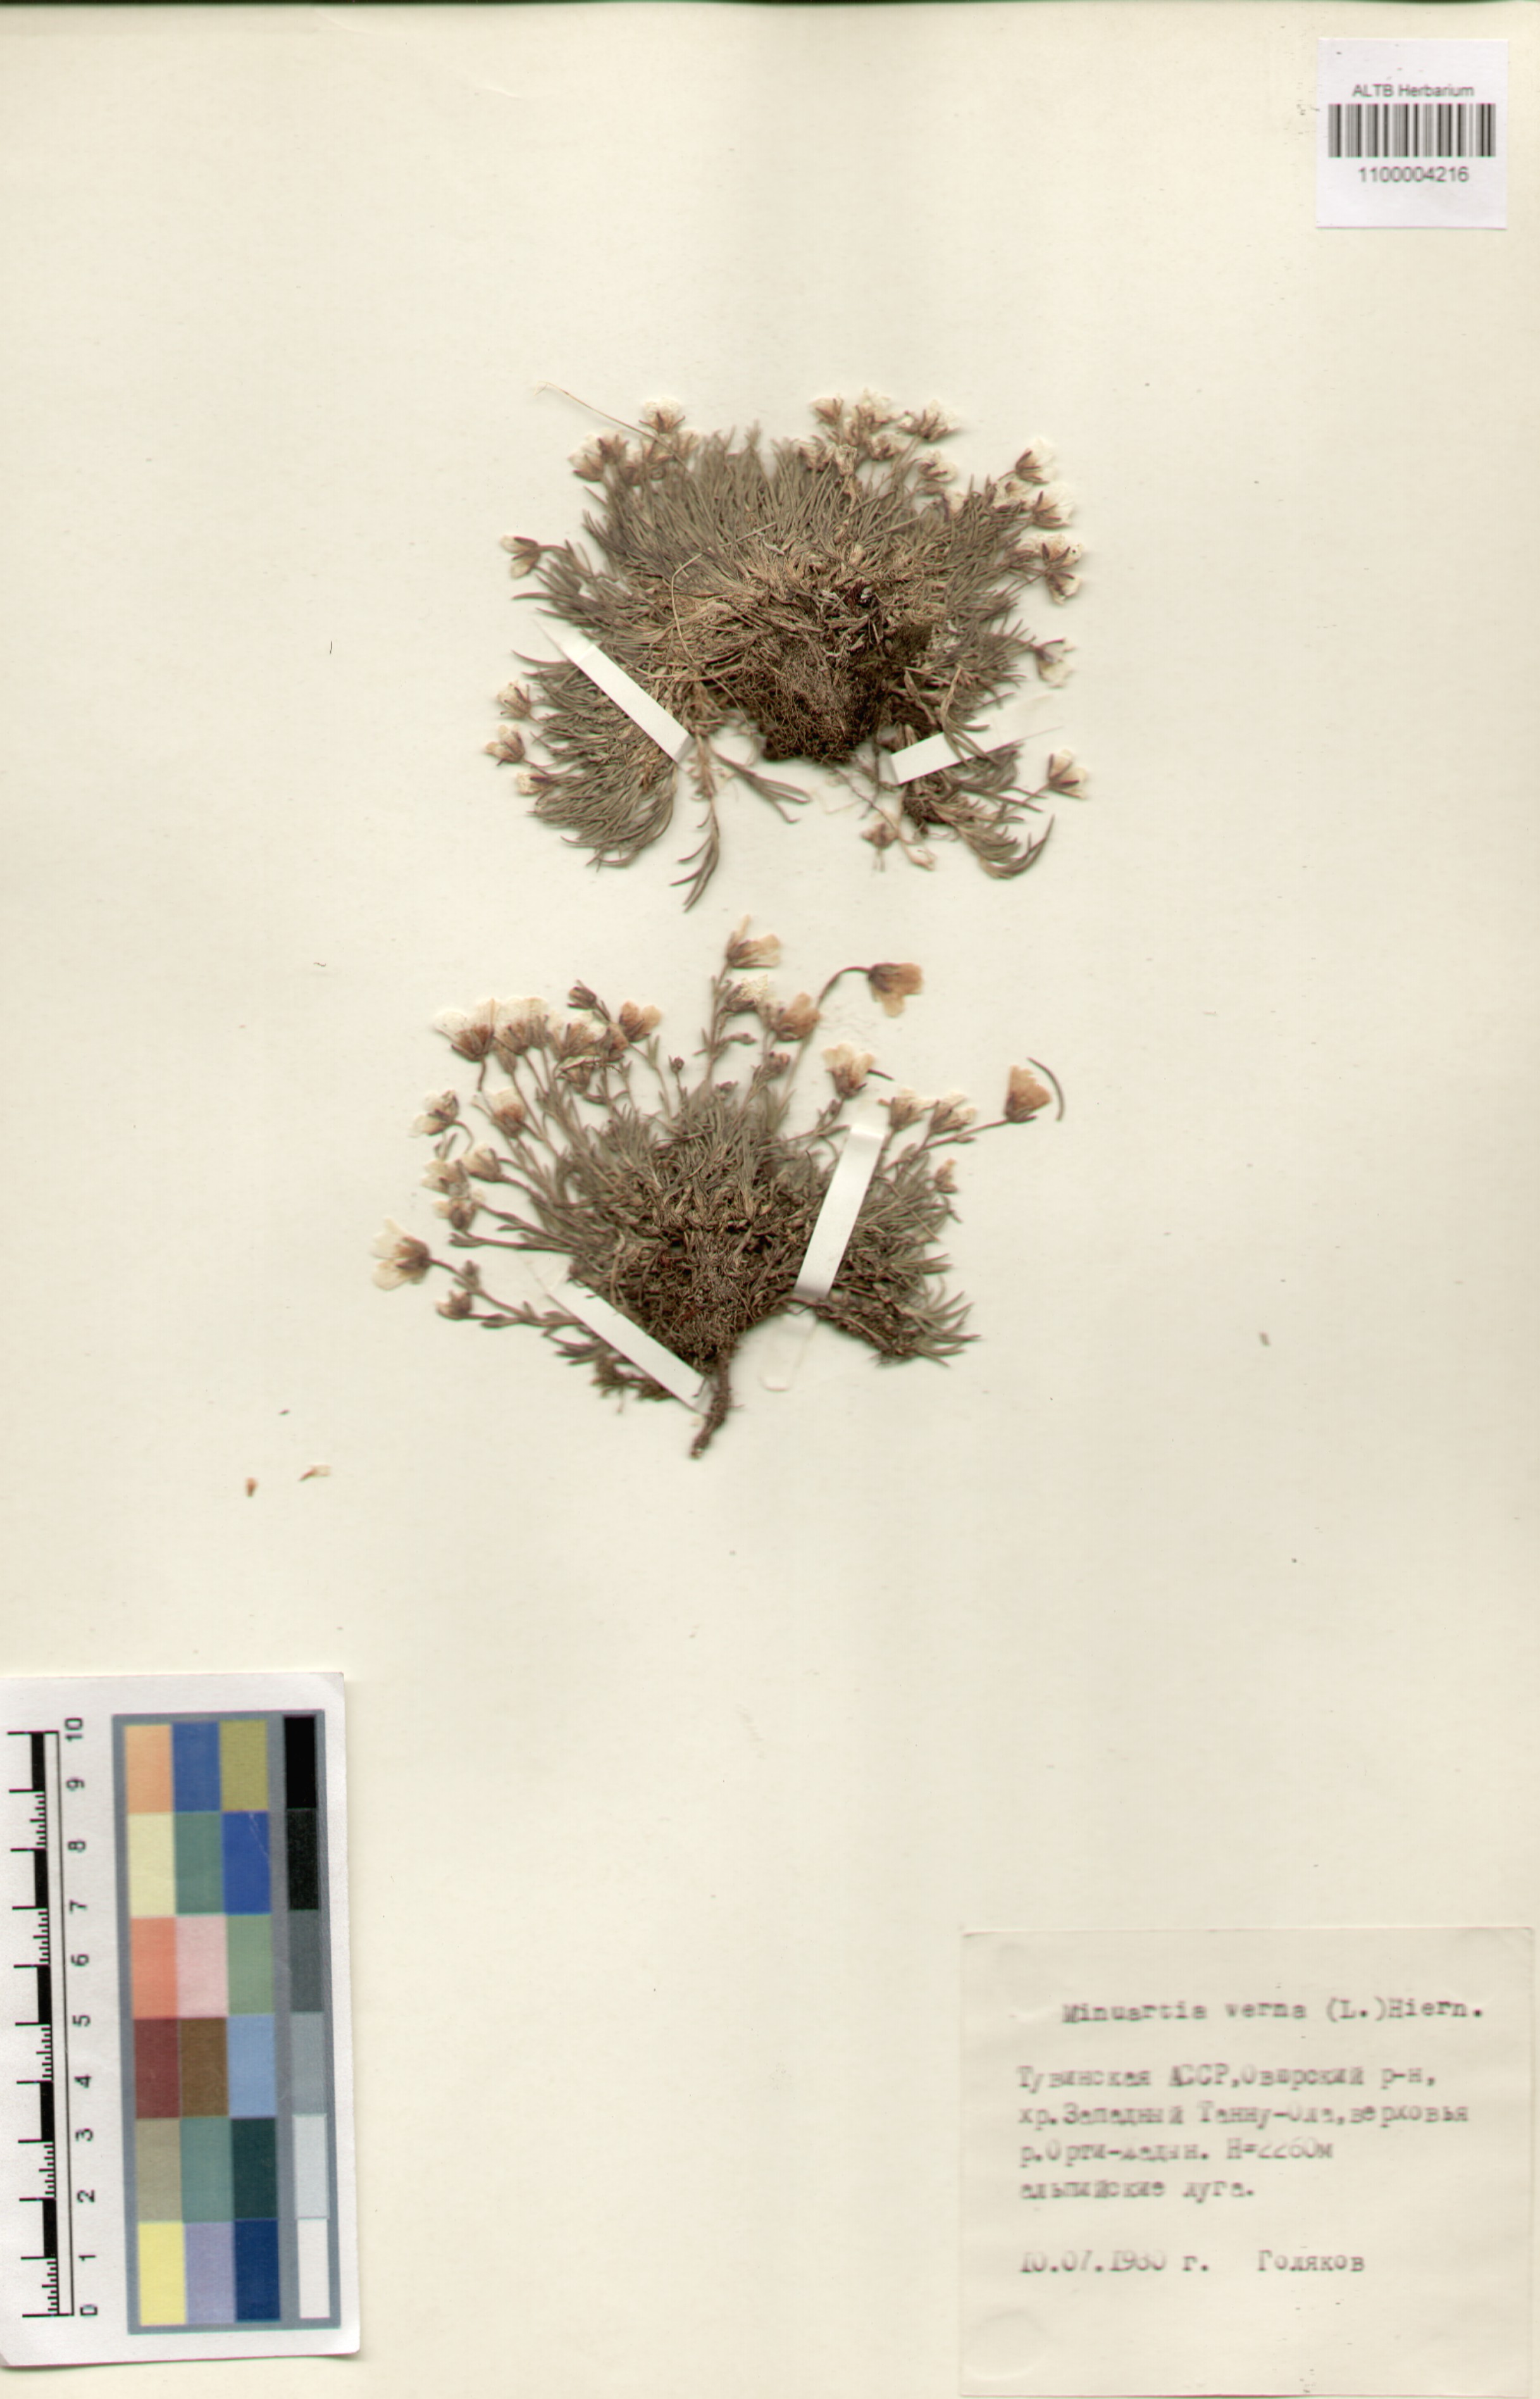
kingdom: Plantae
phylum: Tracheophyta
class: Magnoliopsida
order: Caryophyllales
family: Caryophyllaceae
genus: Sabulina
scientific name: Sabulina verna
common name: Spring sandwort
